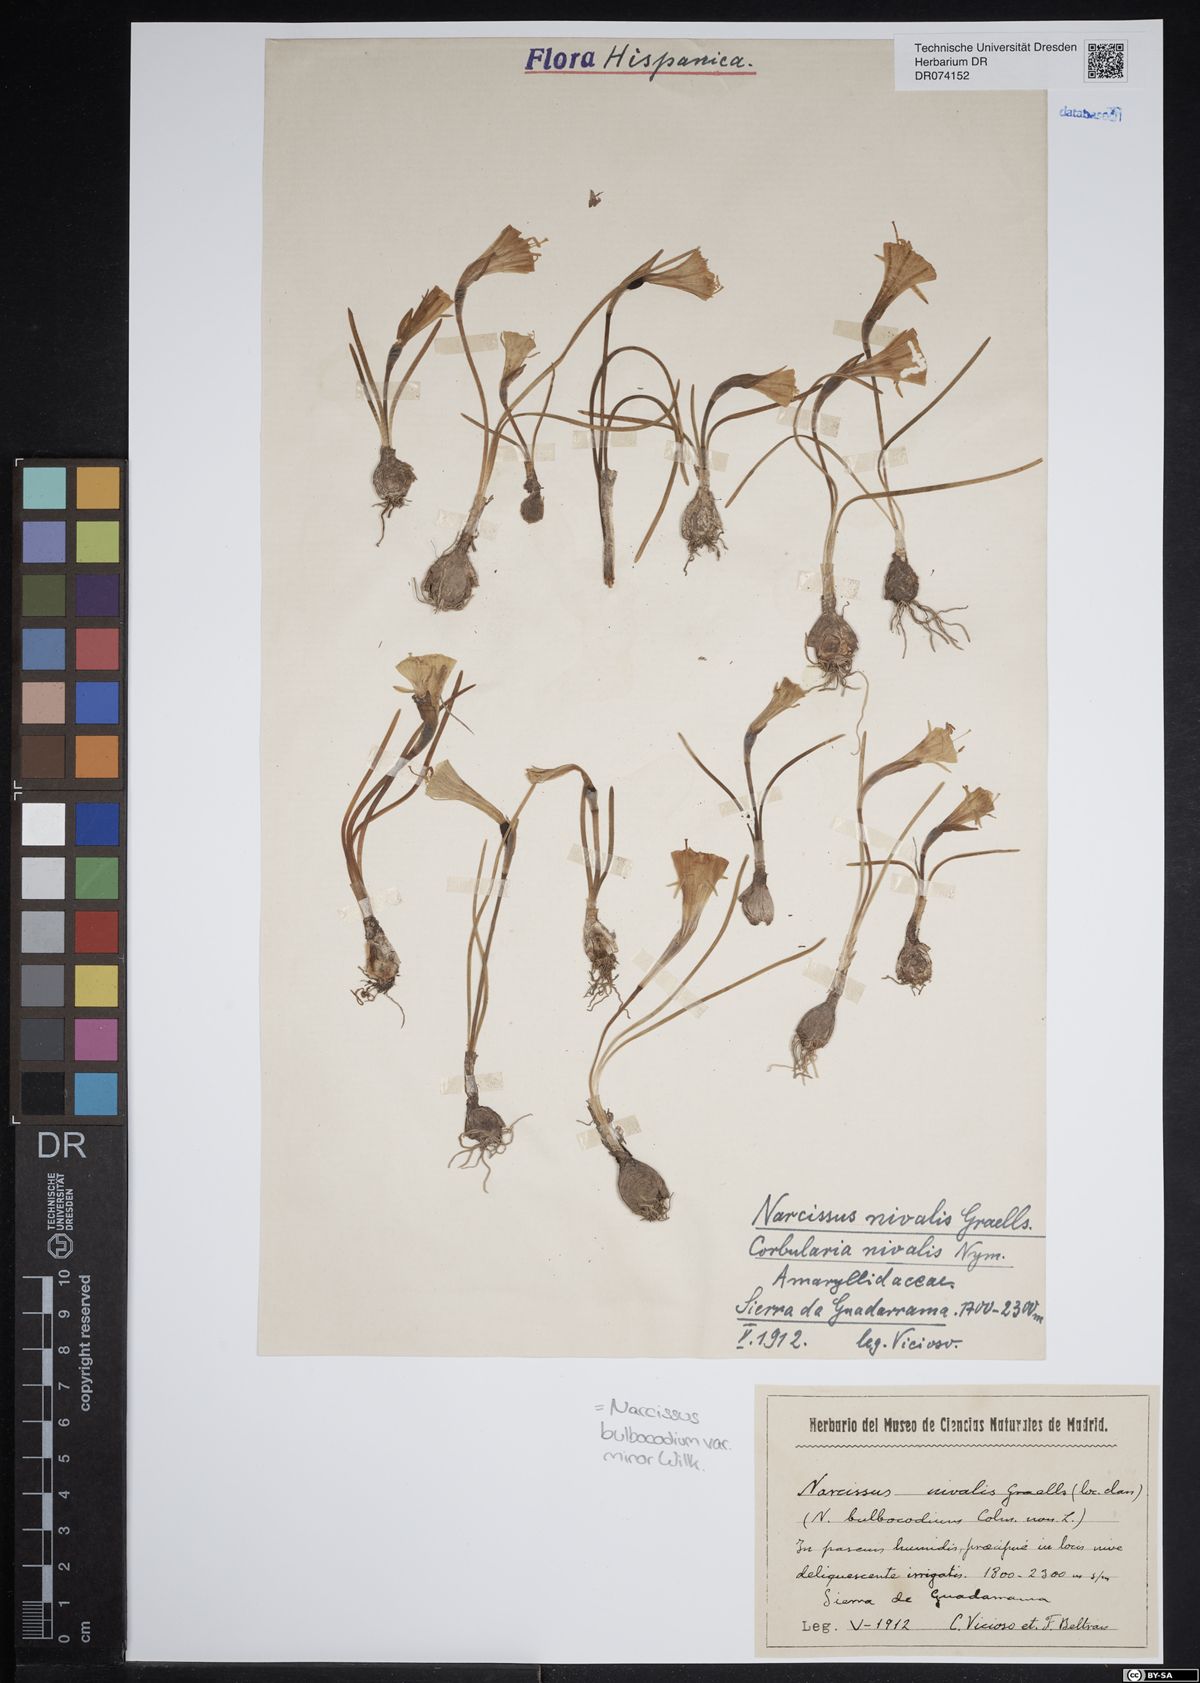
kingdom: Plantae
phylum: Tracheophyta
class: Liliopsida
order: Asparagales
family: Amaryllidaceae
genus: Narcissus
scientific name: Narcissus bulbocodium
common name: Hoop-petticoat daffodil
